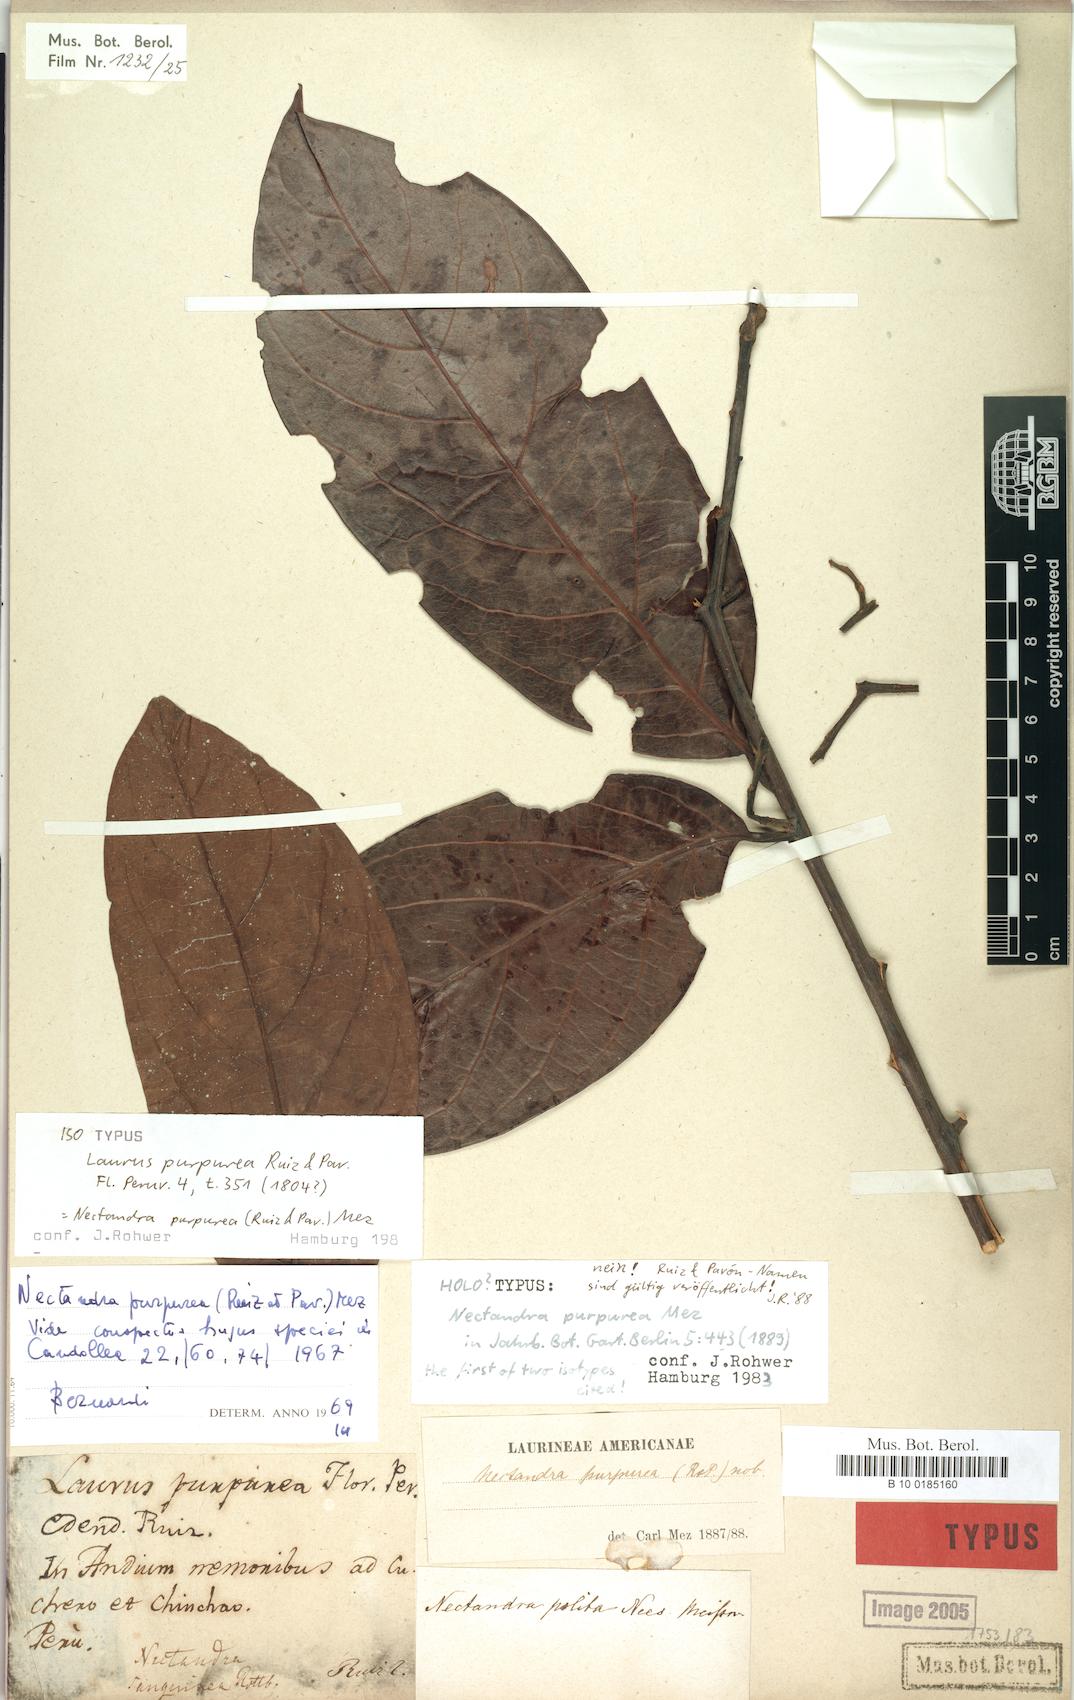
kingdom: Plantae
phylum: Tracheophyta
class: Magnoliopsida
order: Laurales
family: Lauraceae
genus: Damburneya
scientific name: Damburneya purpurea
